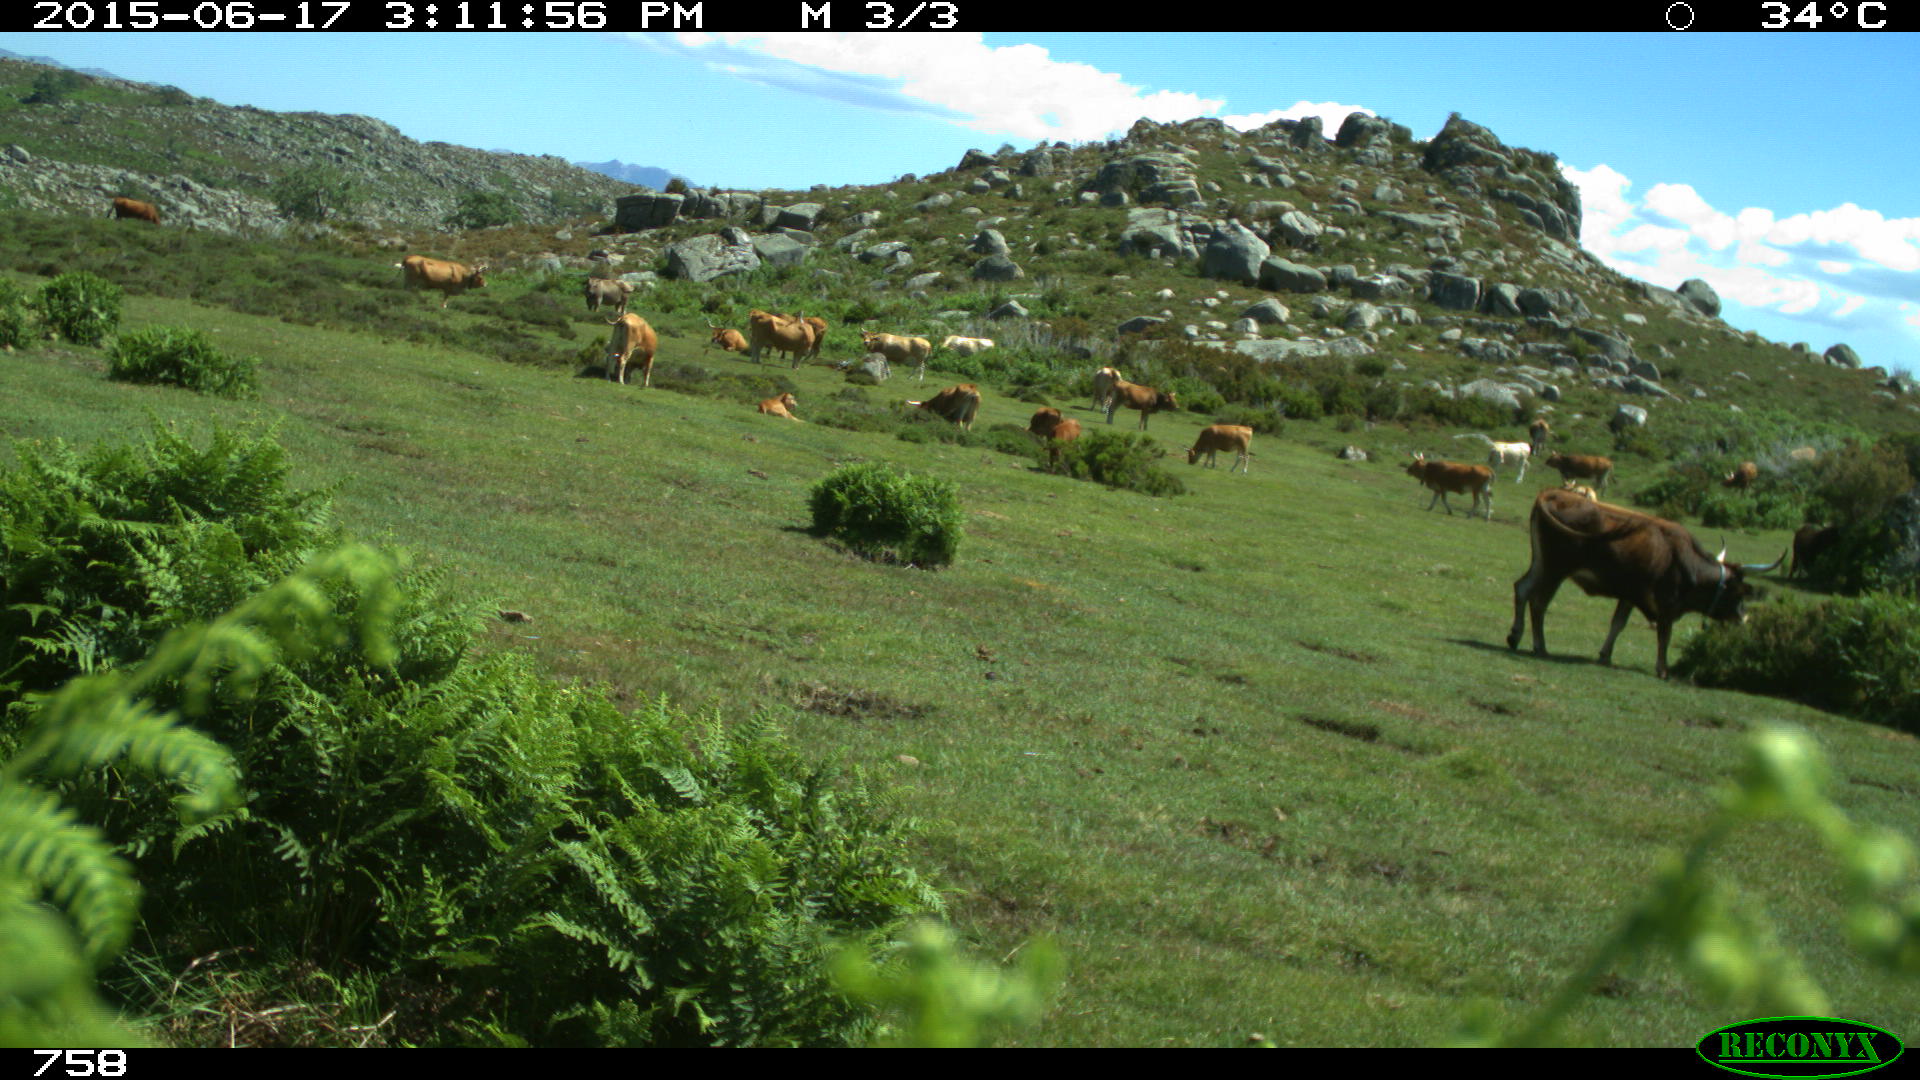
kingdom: Animalia
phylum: Chordata
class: Mammalia
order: Artiodactyla
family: Bovidae
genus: Bos
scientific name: Bos taurus
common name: Domesticated cattle
